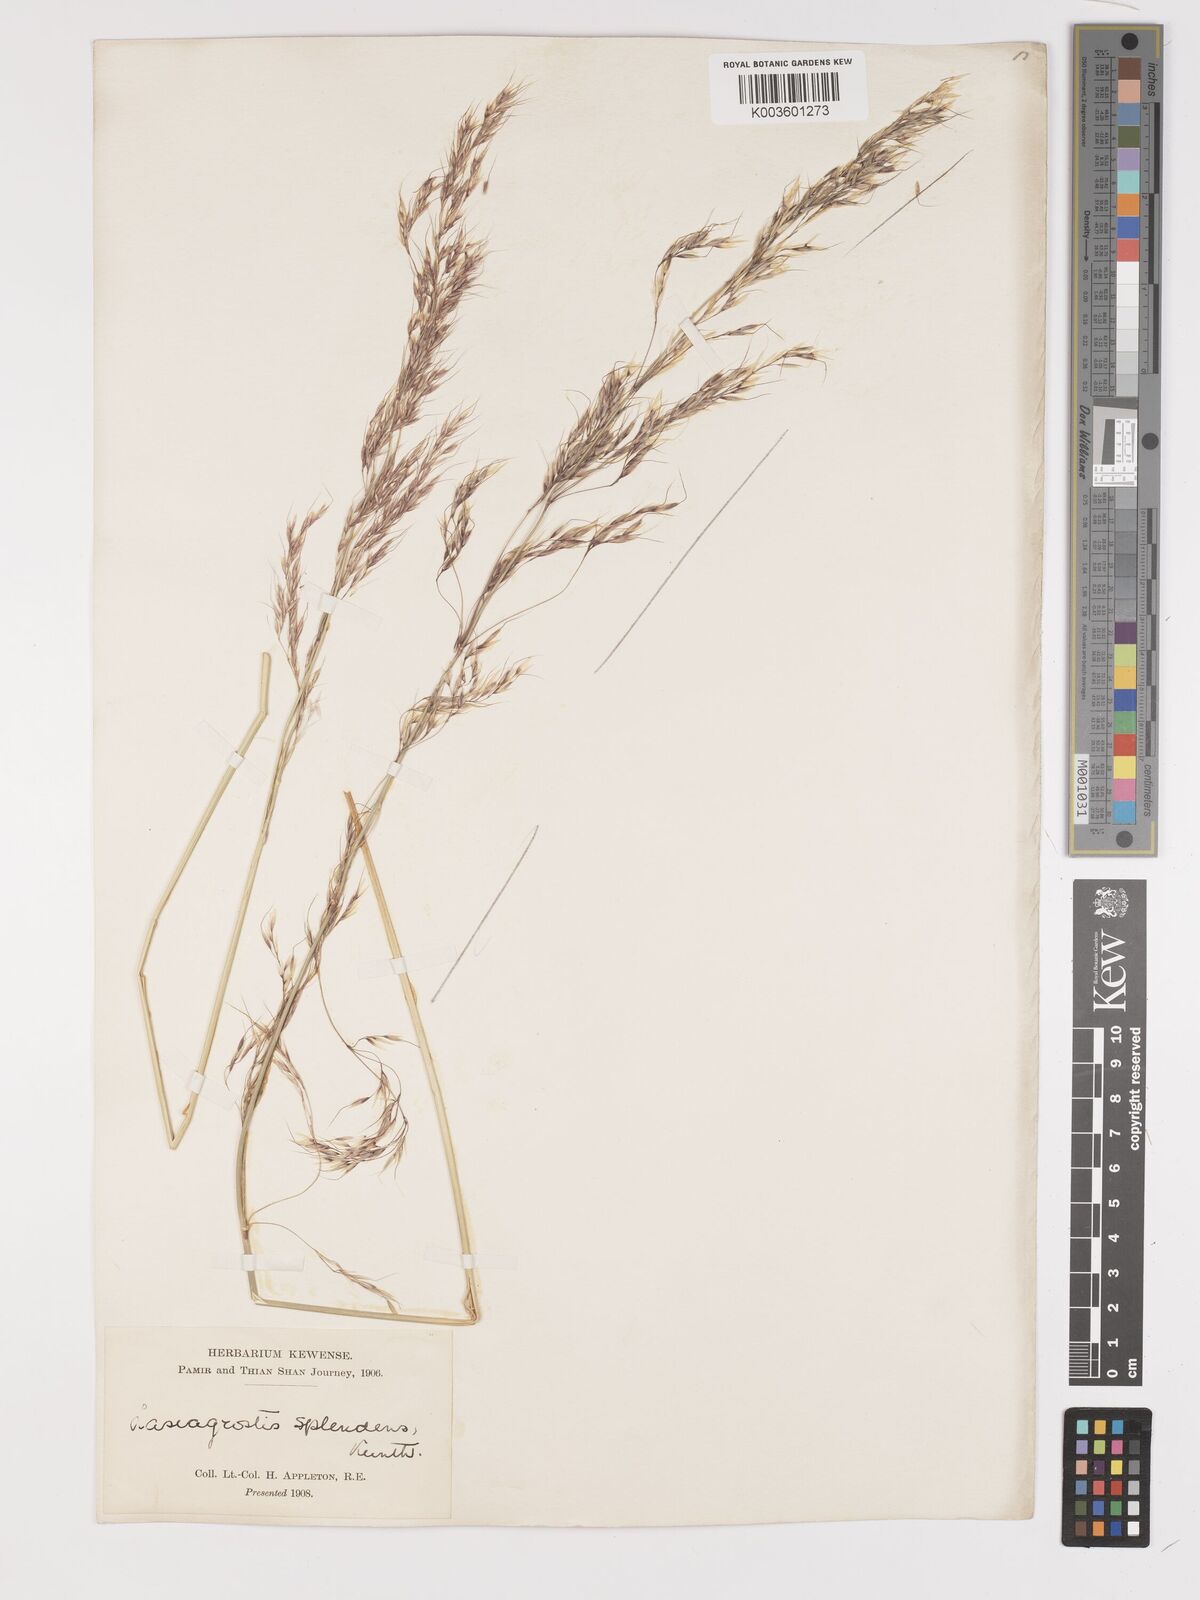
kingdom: Plantae
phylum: Tracheophyta
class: Liliopsida
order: Poales
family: Poaceae
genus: Neotrinia
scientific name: Neotrinia splendens
